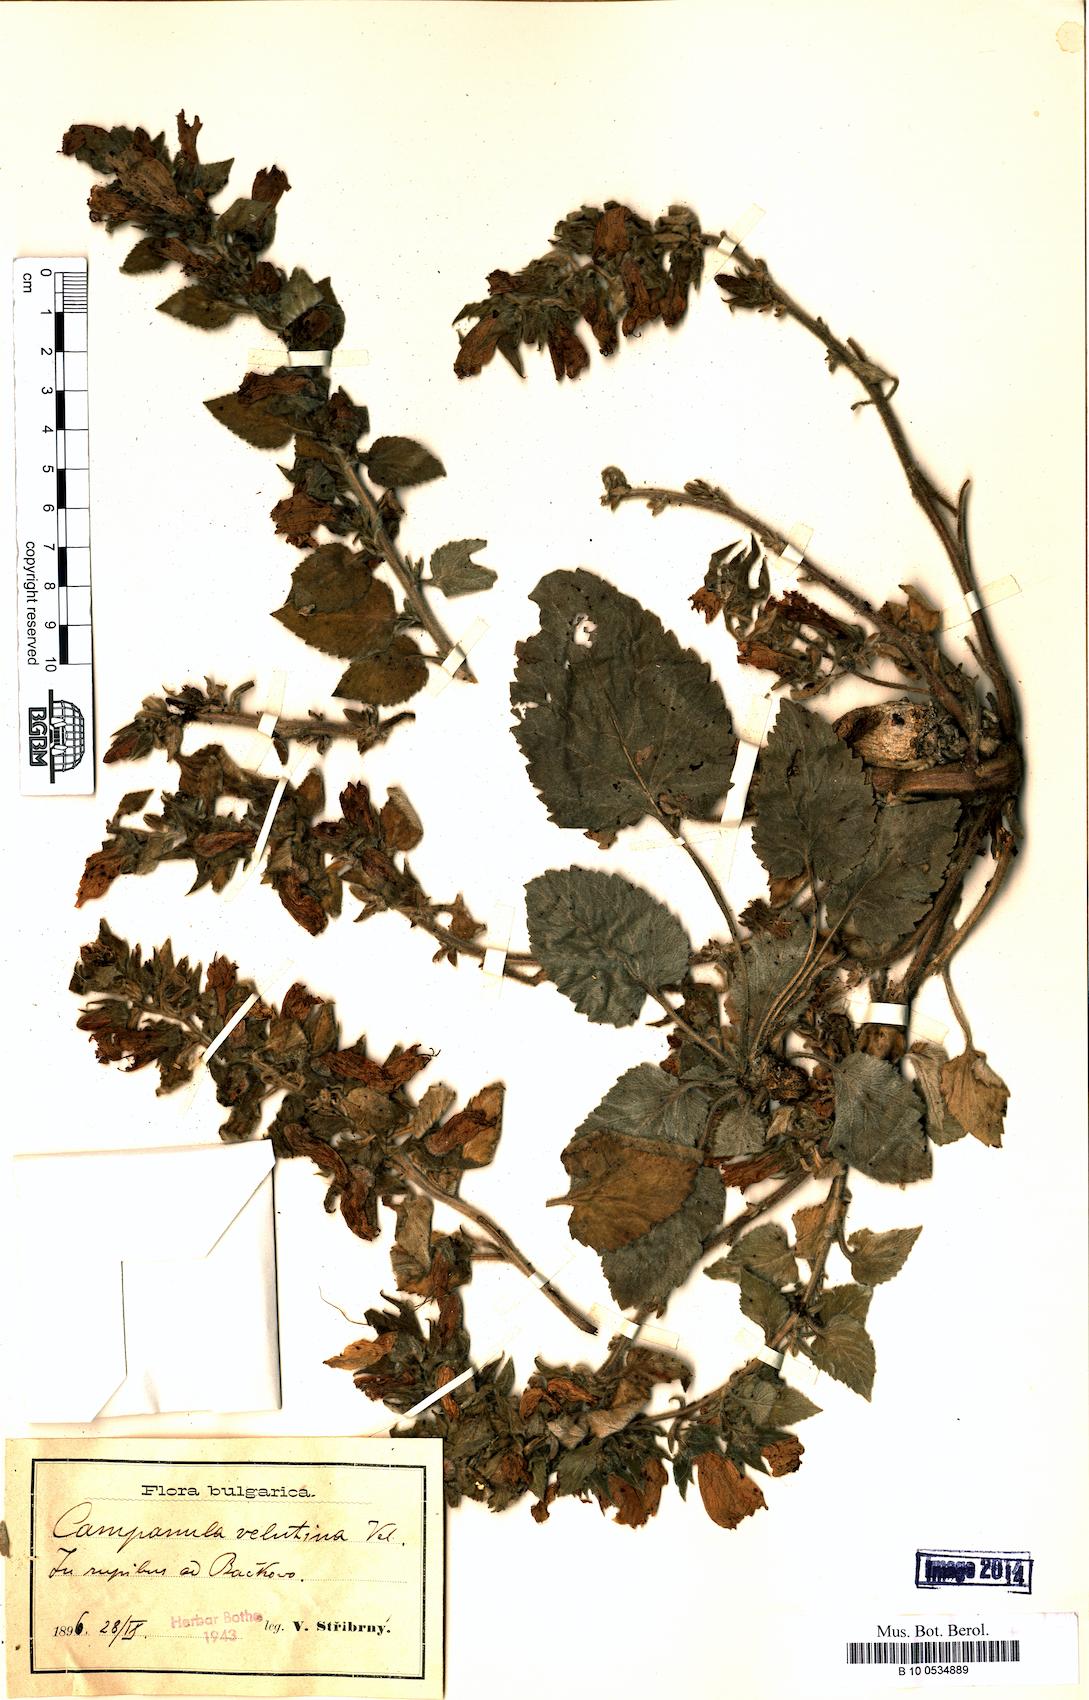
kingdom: Plantae
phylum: Tracheophyta
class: Magnoliopsida
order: Asterales
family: Campanulaceae
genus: Campanula
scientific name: Campanula lanata
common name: Woolly bellflower
